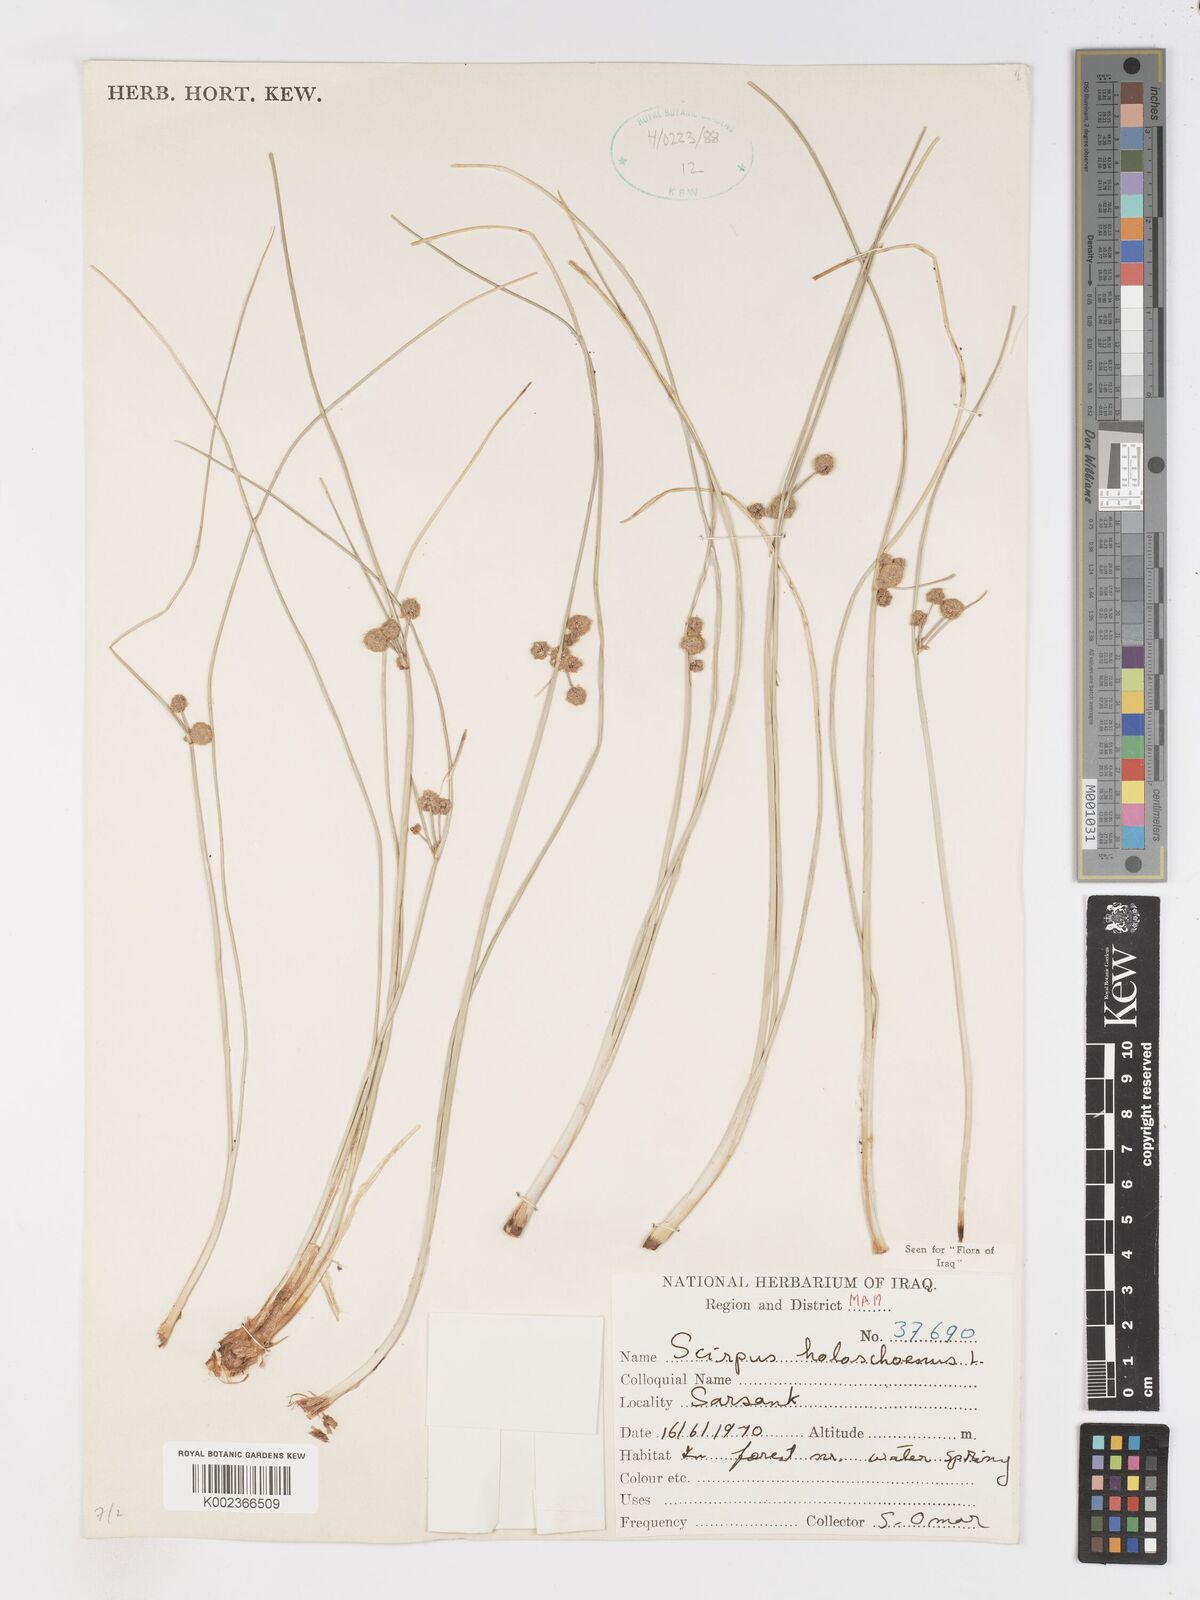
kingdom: Plantae
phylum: Tracheophyta
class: Liliopsida
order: Poales
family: Cyperaceae
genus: Scirpoides
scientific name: Scirpoides holoschoenus
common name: Round-headed club-rush
